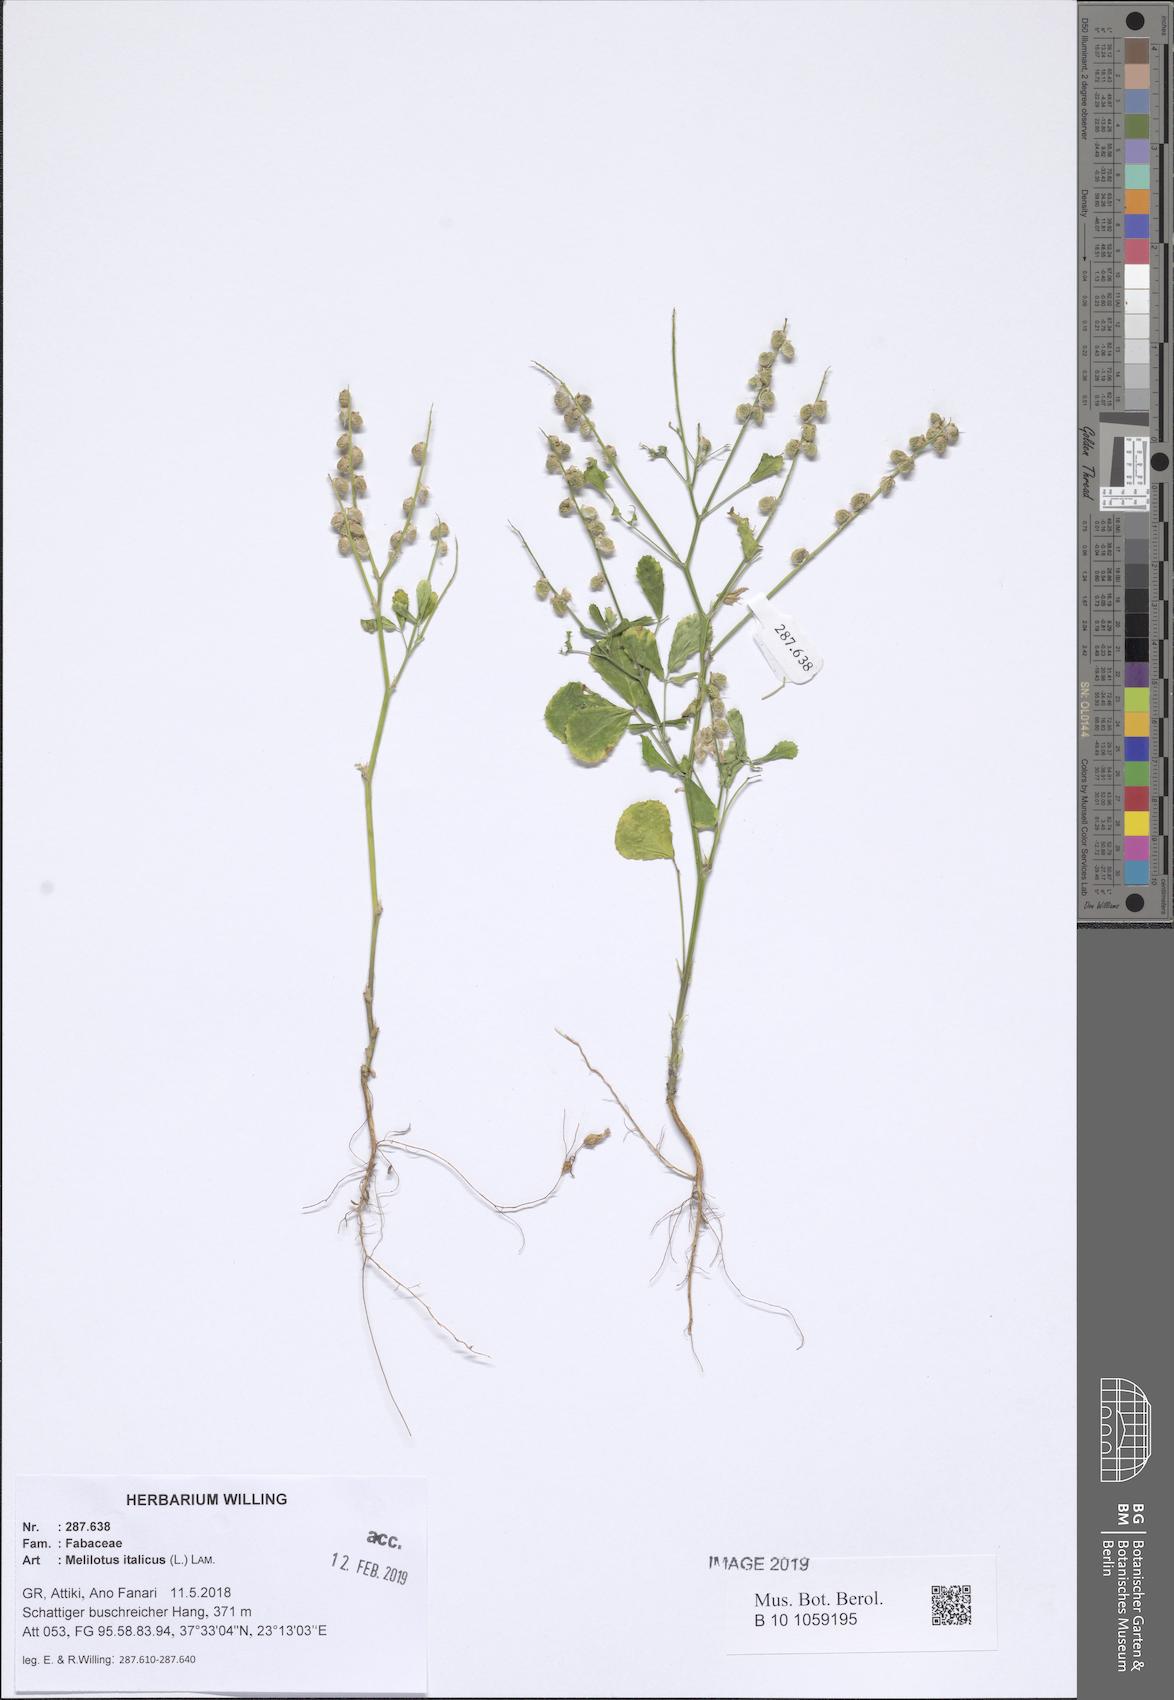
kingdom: Plantae
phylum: Tracheophyta
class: Magnoliopsida
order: Fabales
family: Fabaceae
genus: Melilotus
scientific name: Melilotus italicus
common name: Italian melilot
